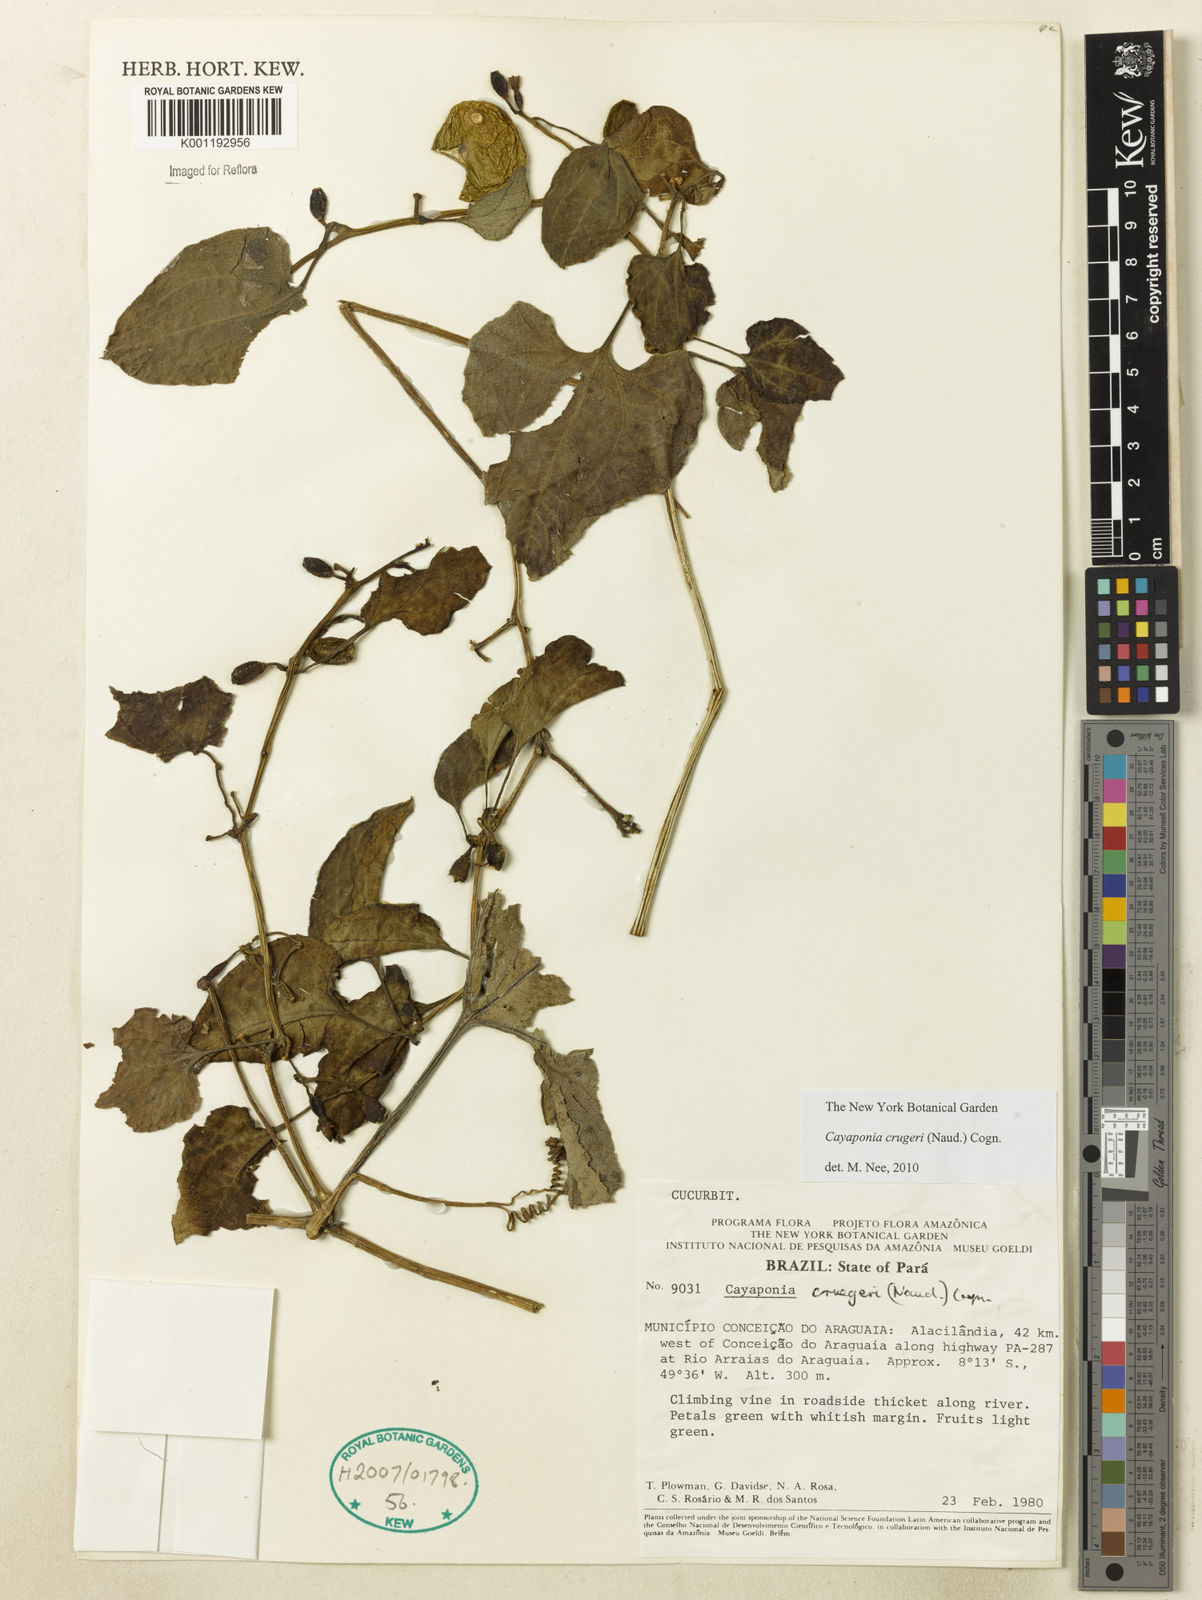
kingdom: Plantae
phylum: Tracheophyta
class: Magnoliopsida
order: Cucurbitales
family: Cucurbitaceae
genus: Cayaponia
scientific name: Cayaponia cruegeri
